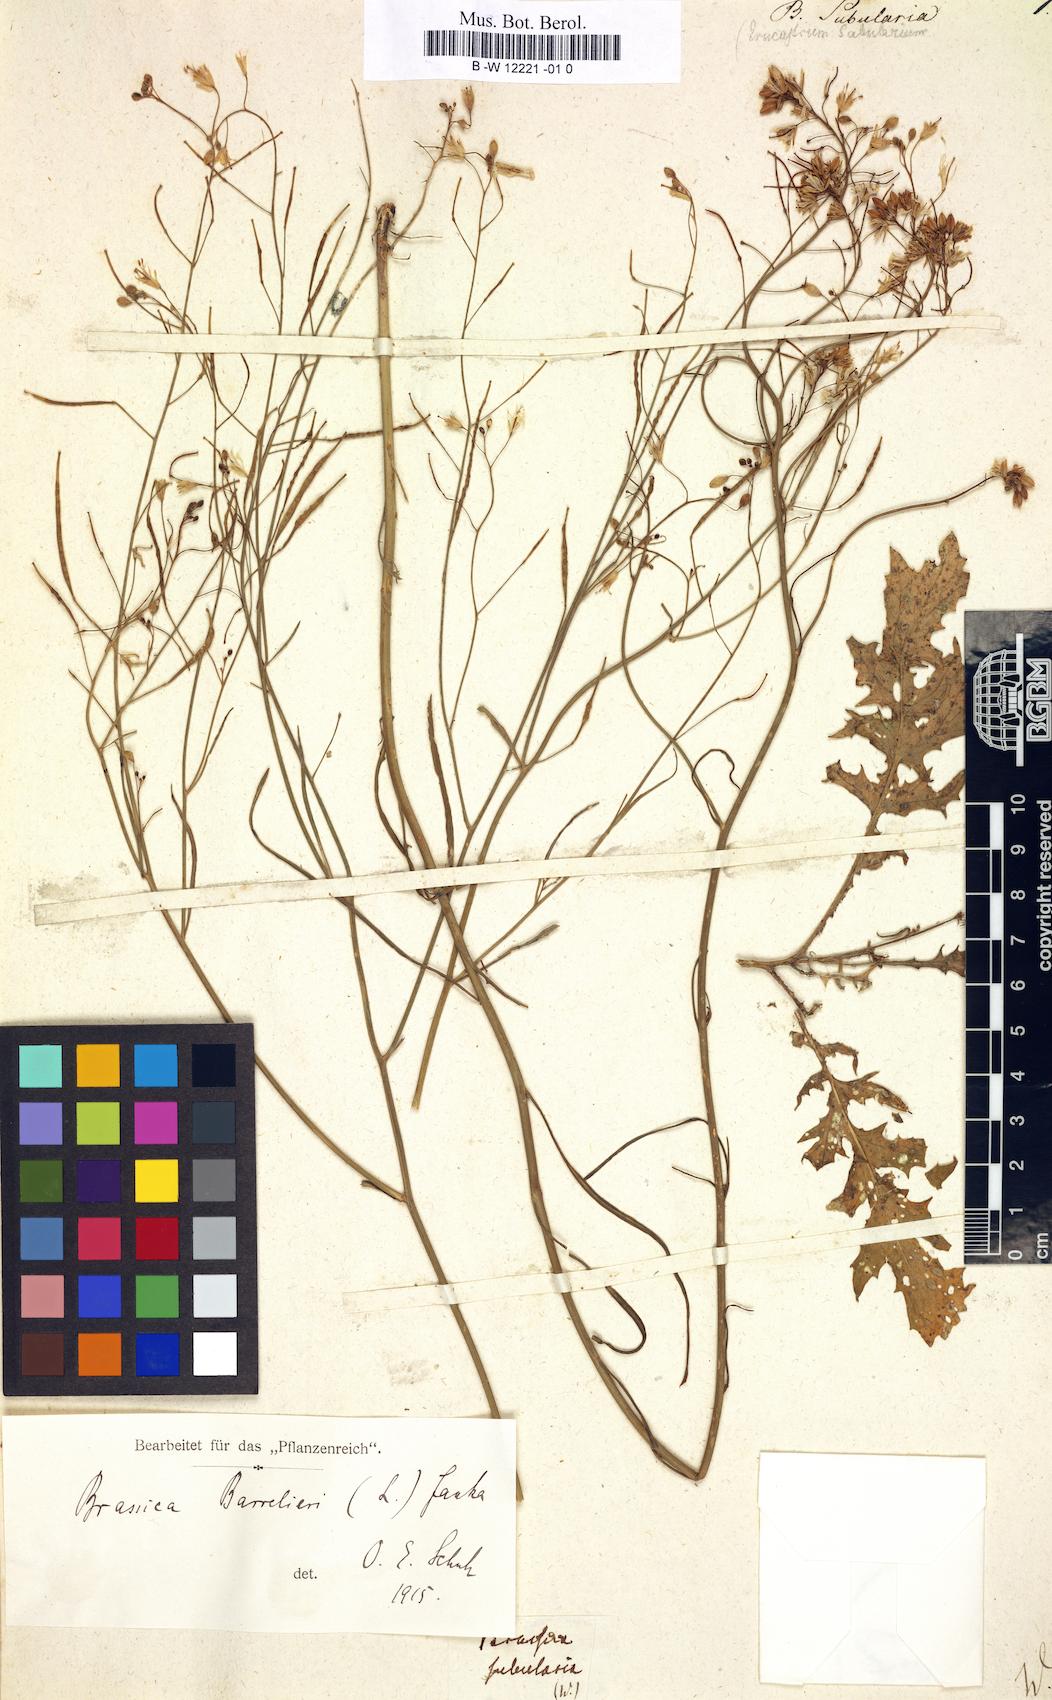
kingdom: Plantae
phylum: Tracheophyta
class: Magnoliopsida
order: Brassicales
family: Brassicaceae
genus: Brassica
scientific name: Brassica barrelieri
